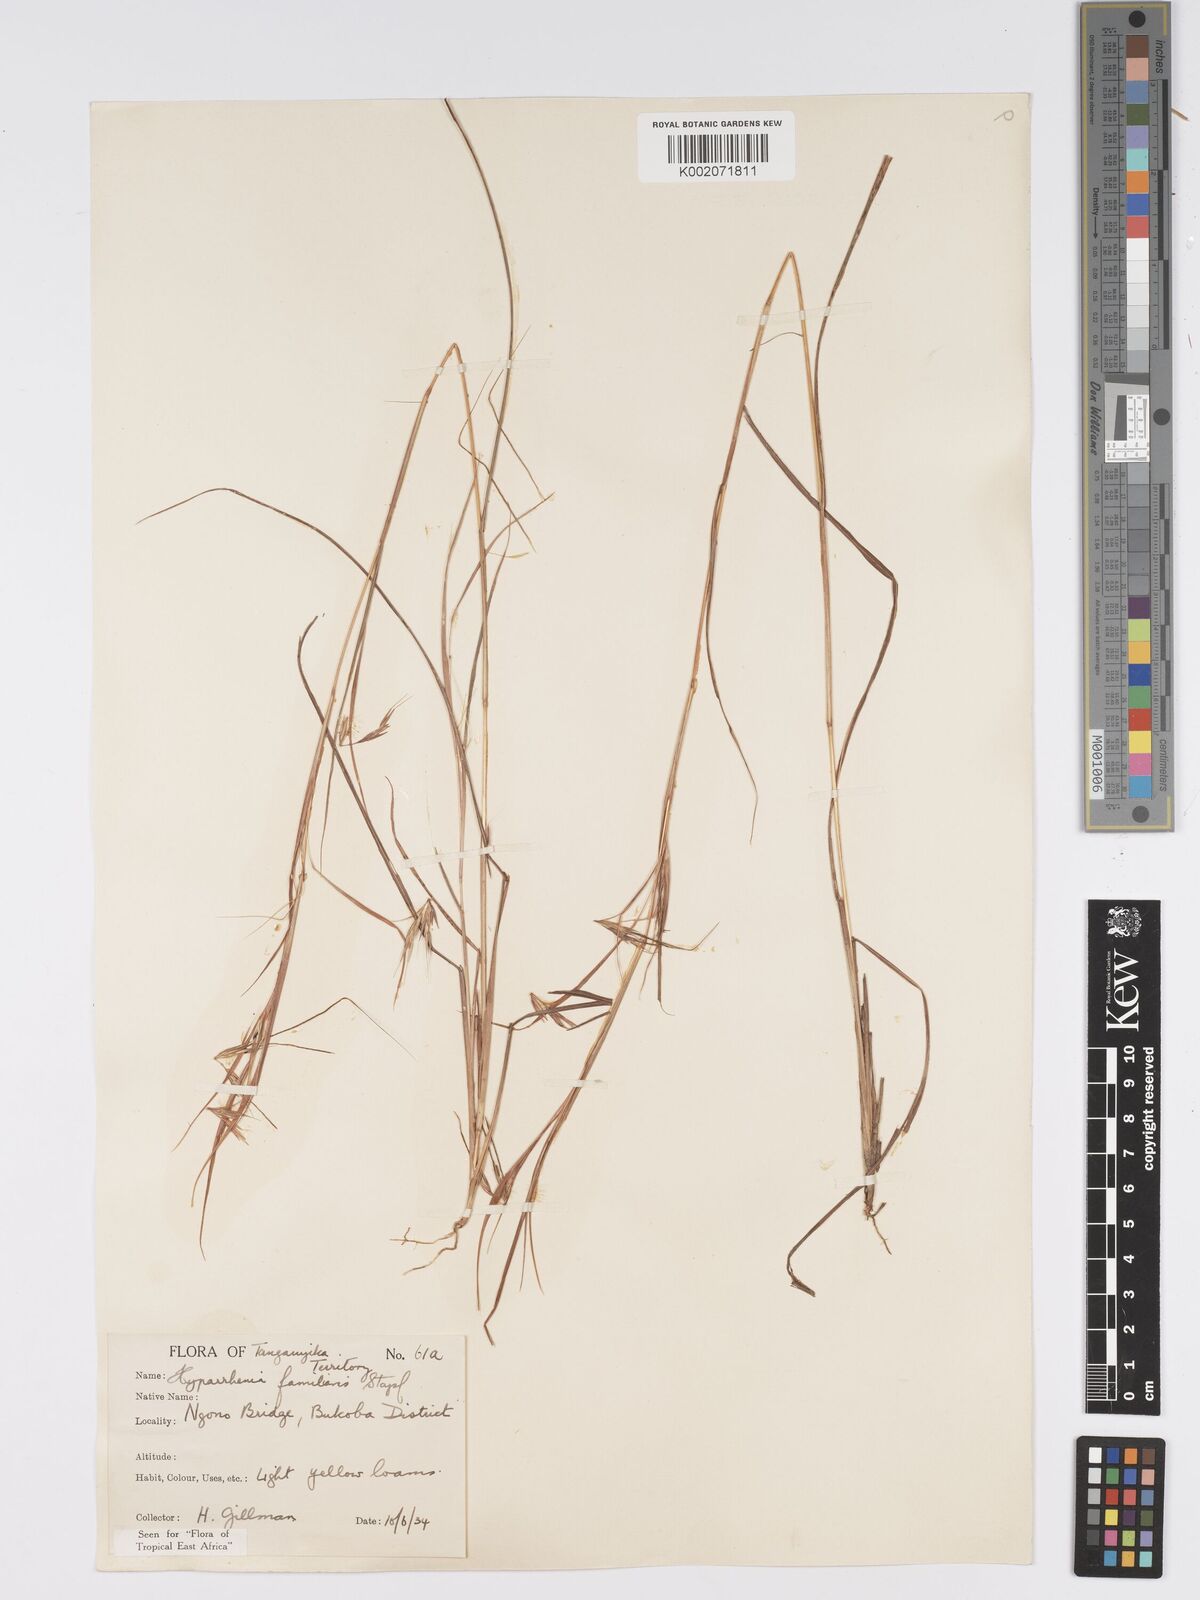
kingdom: Plantae
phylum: Tracheophyta
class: Liliopsida
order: Poales
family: Poaceae
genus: Hyparrhenia
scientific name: Hyparrhenia familiaris
